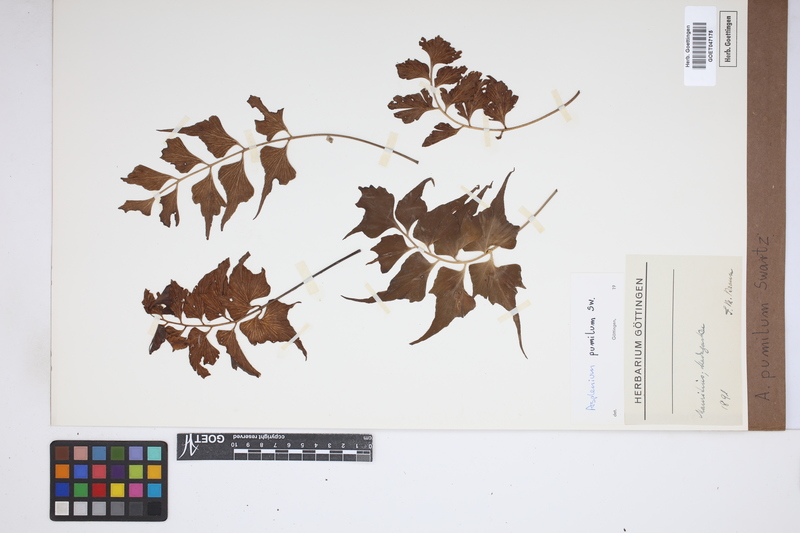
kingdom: Plantae
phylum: Tracheophyta
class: Polypodiopsida
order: Polypodiales
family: Aspleniaceae
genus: Asplenium
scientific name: Asplenium pumilum
